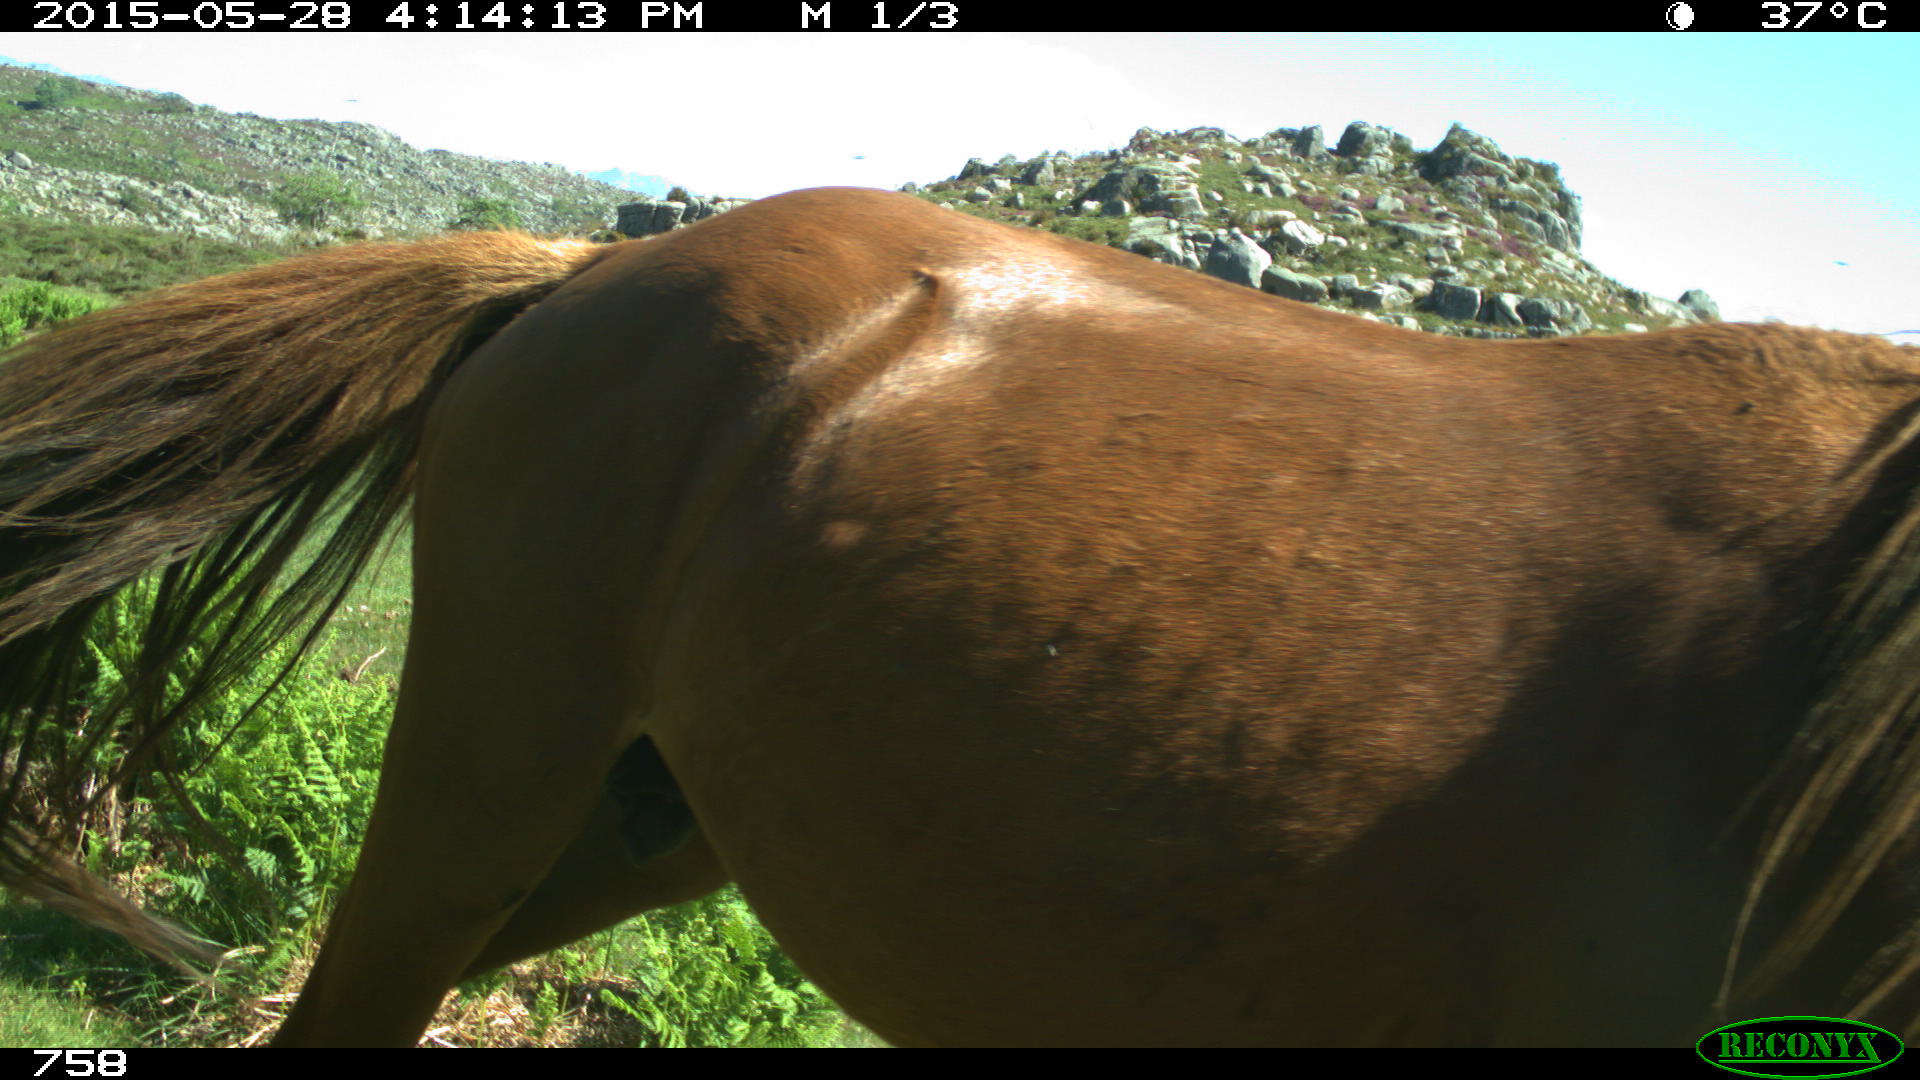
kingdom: Animalia
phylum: Chordata
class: Mammalia
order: Perissodactyla
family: Equidae
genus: Equus
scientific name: Equus caballus
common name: Horse
